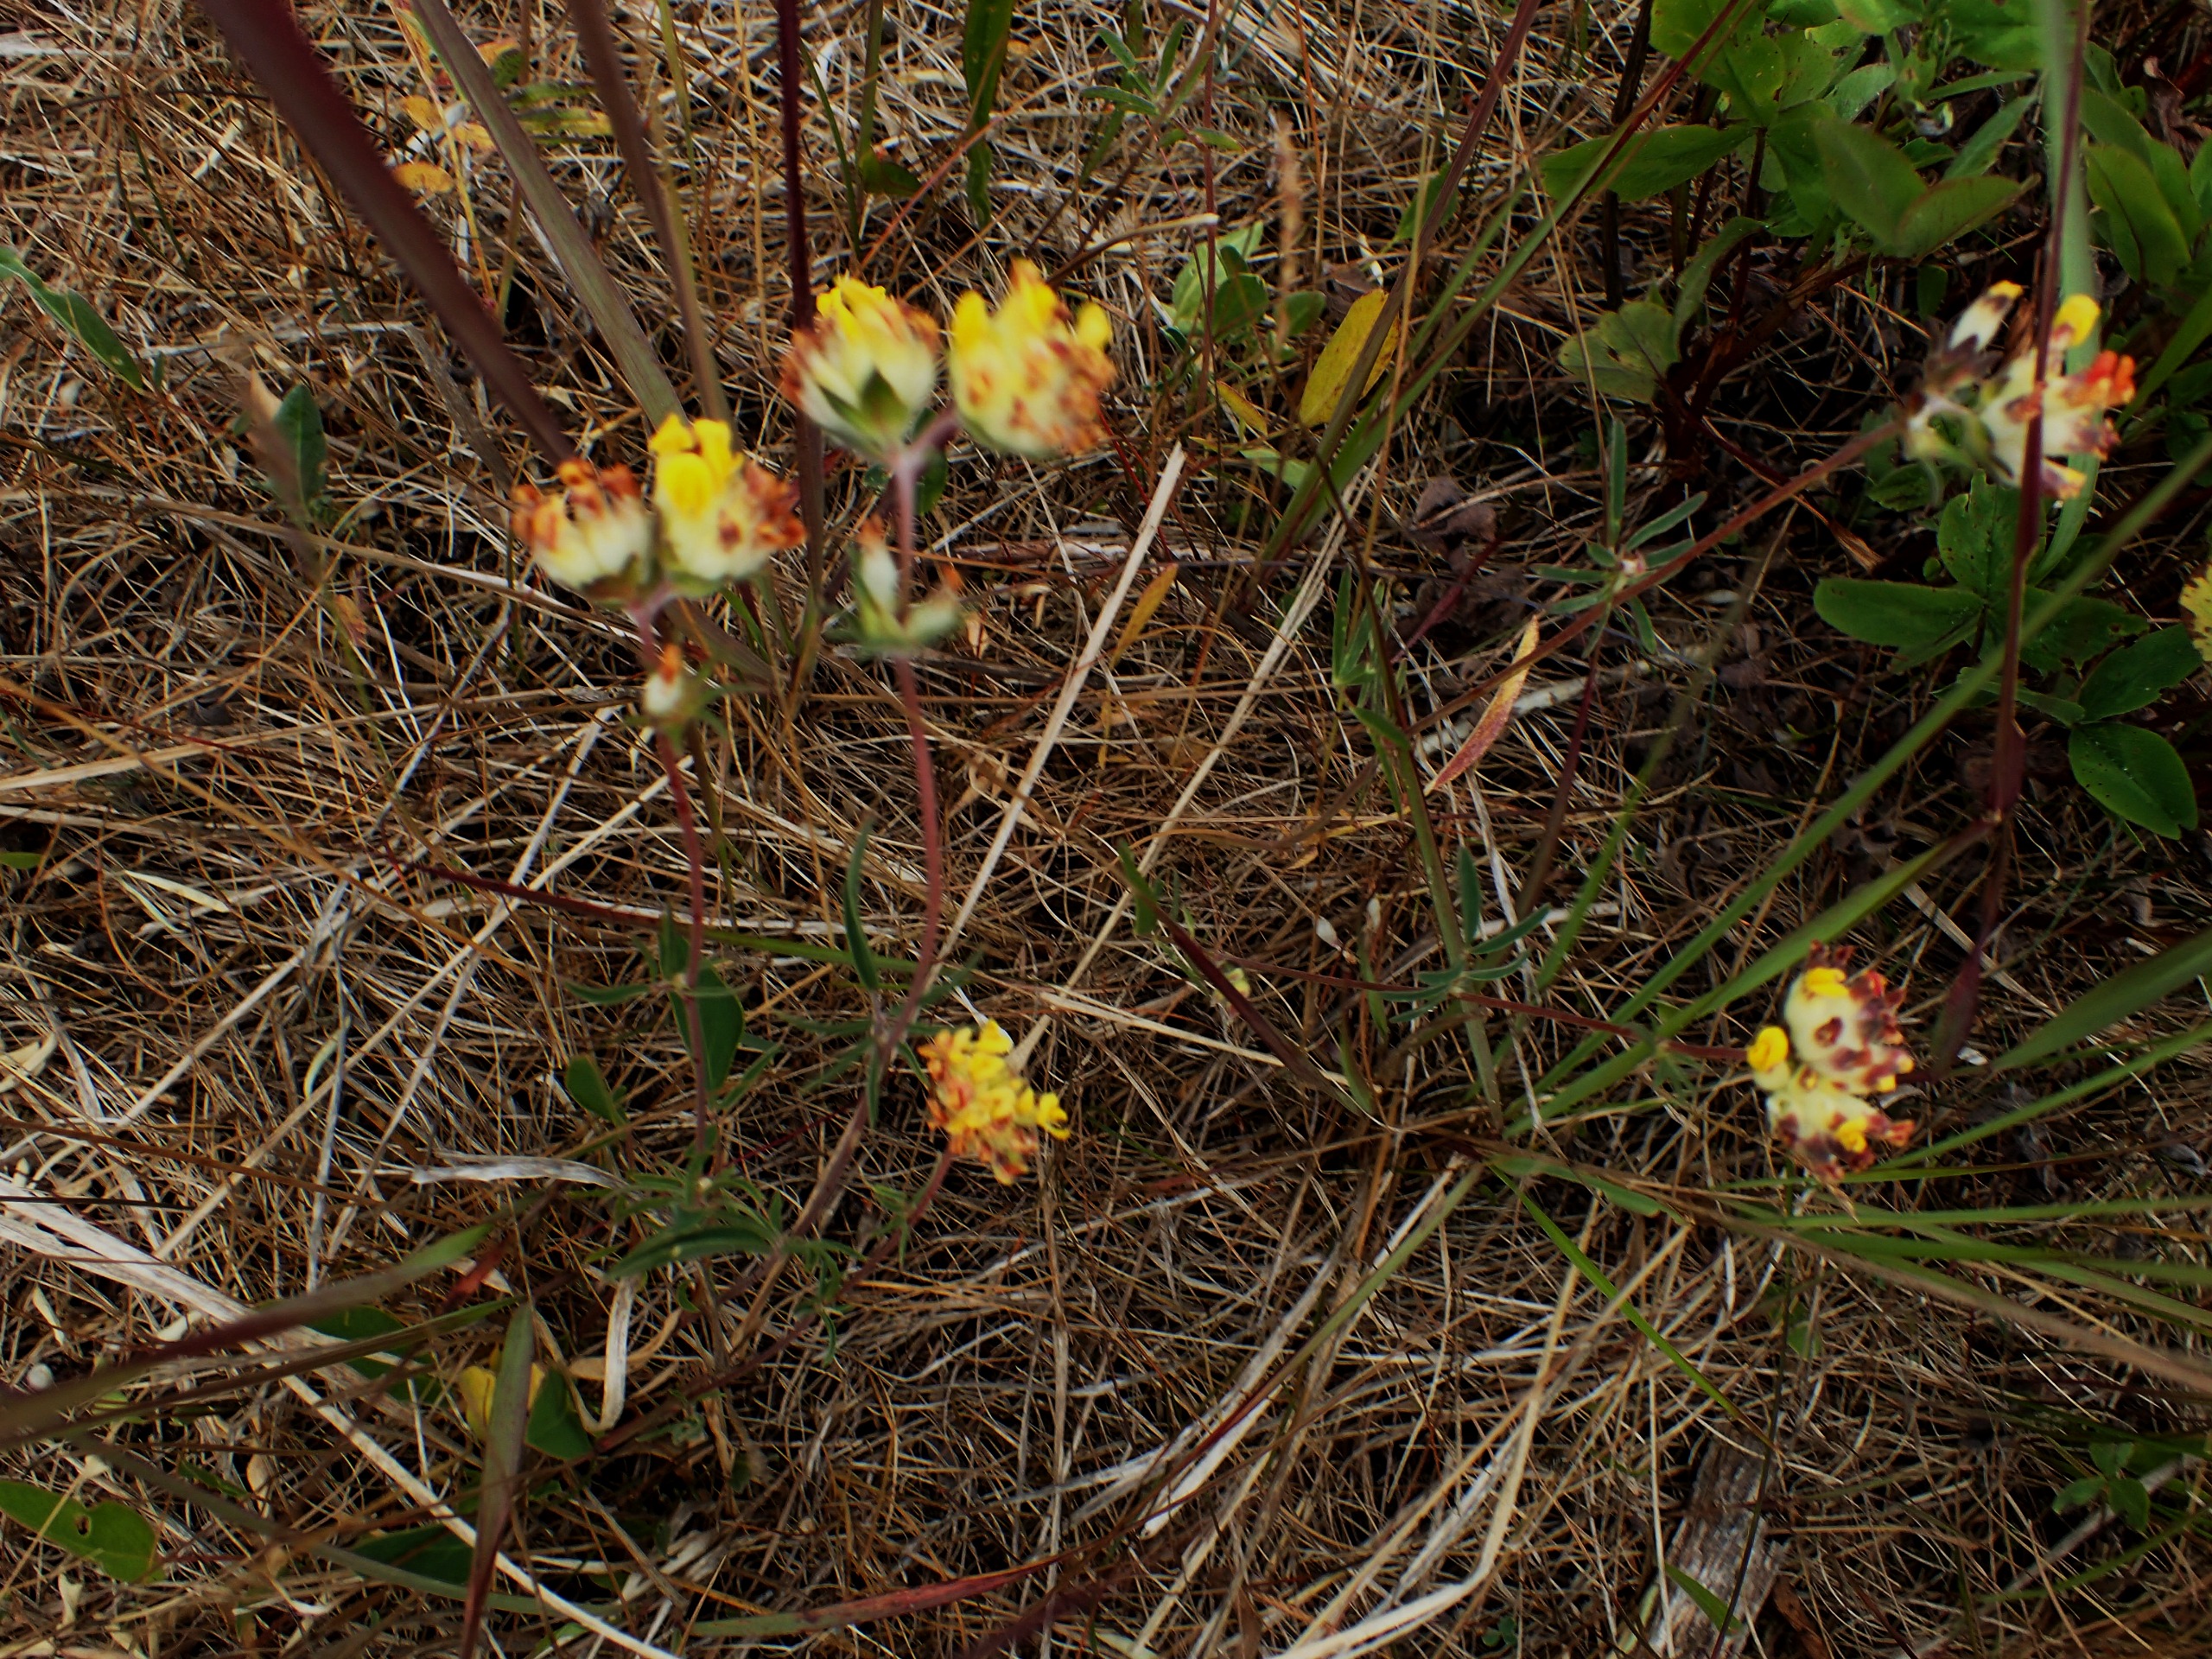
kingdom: Plantae
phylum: Tracheophyta
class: Magnoliopsida
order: Fabales
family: Fabaceae
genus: Anthyllis
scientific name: Anthyllis vulneraria
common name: Rundbælg
